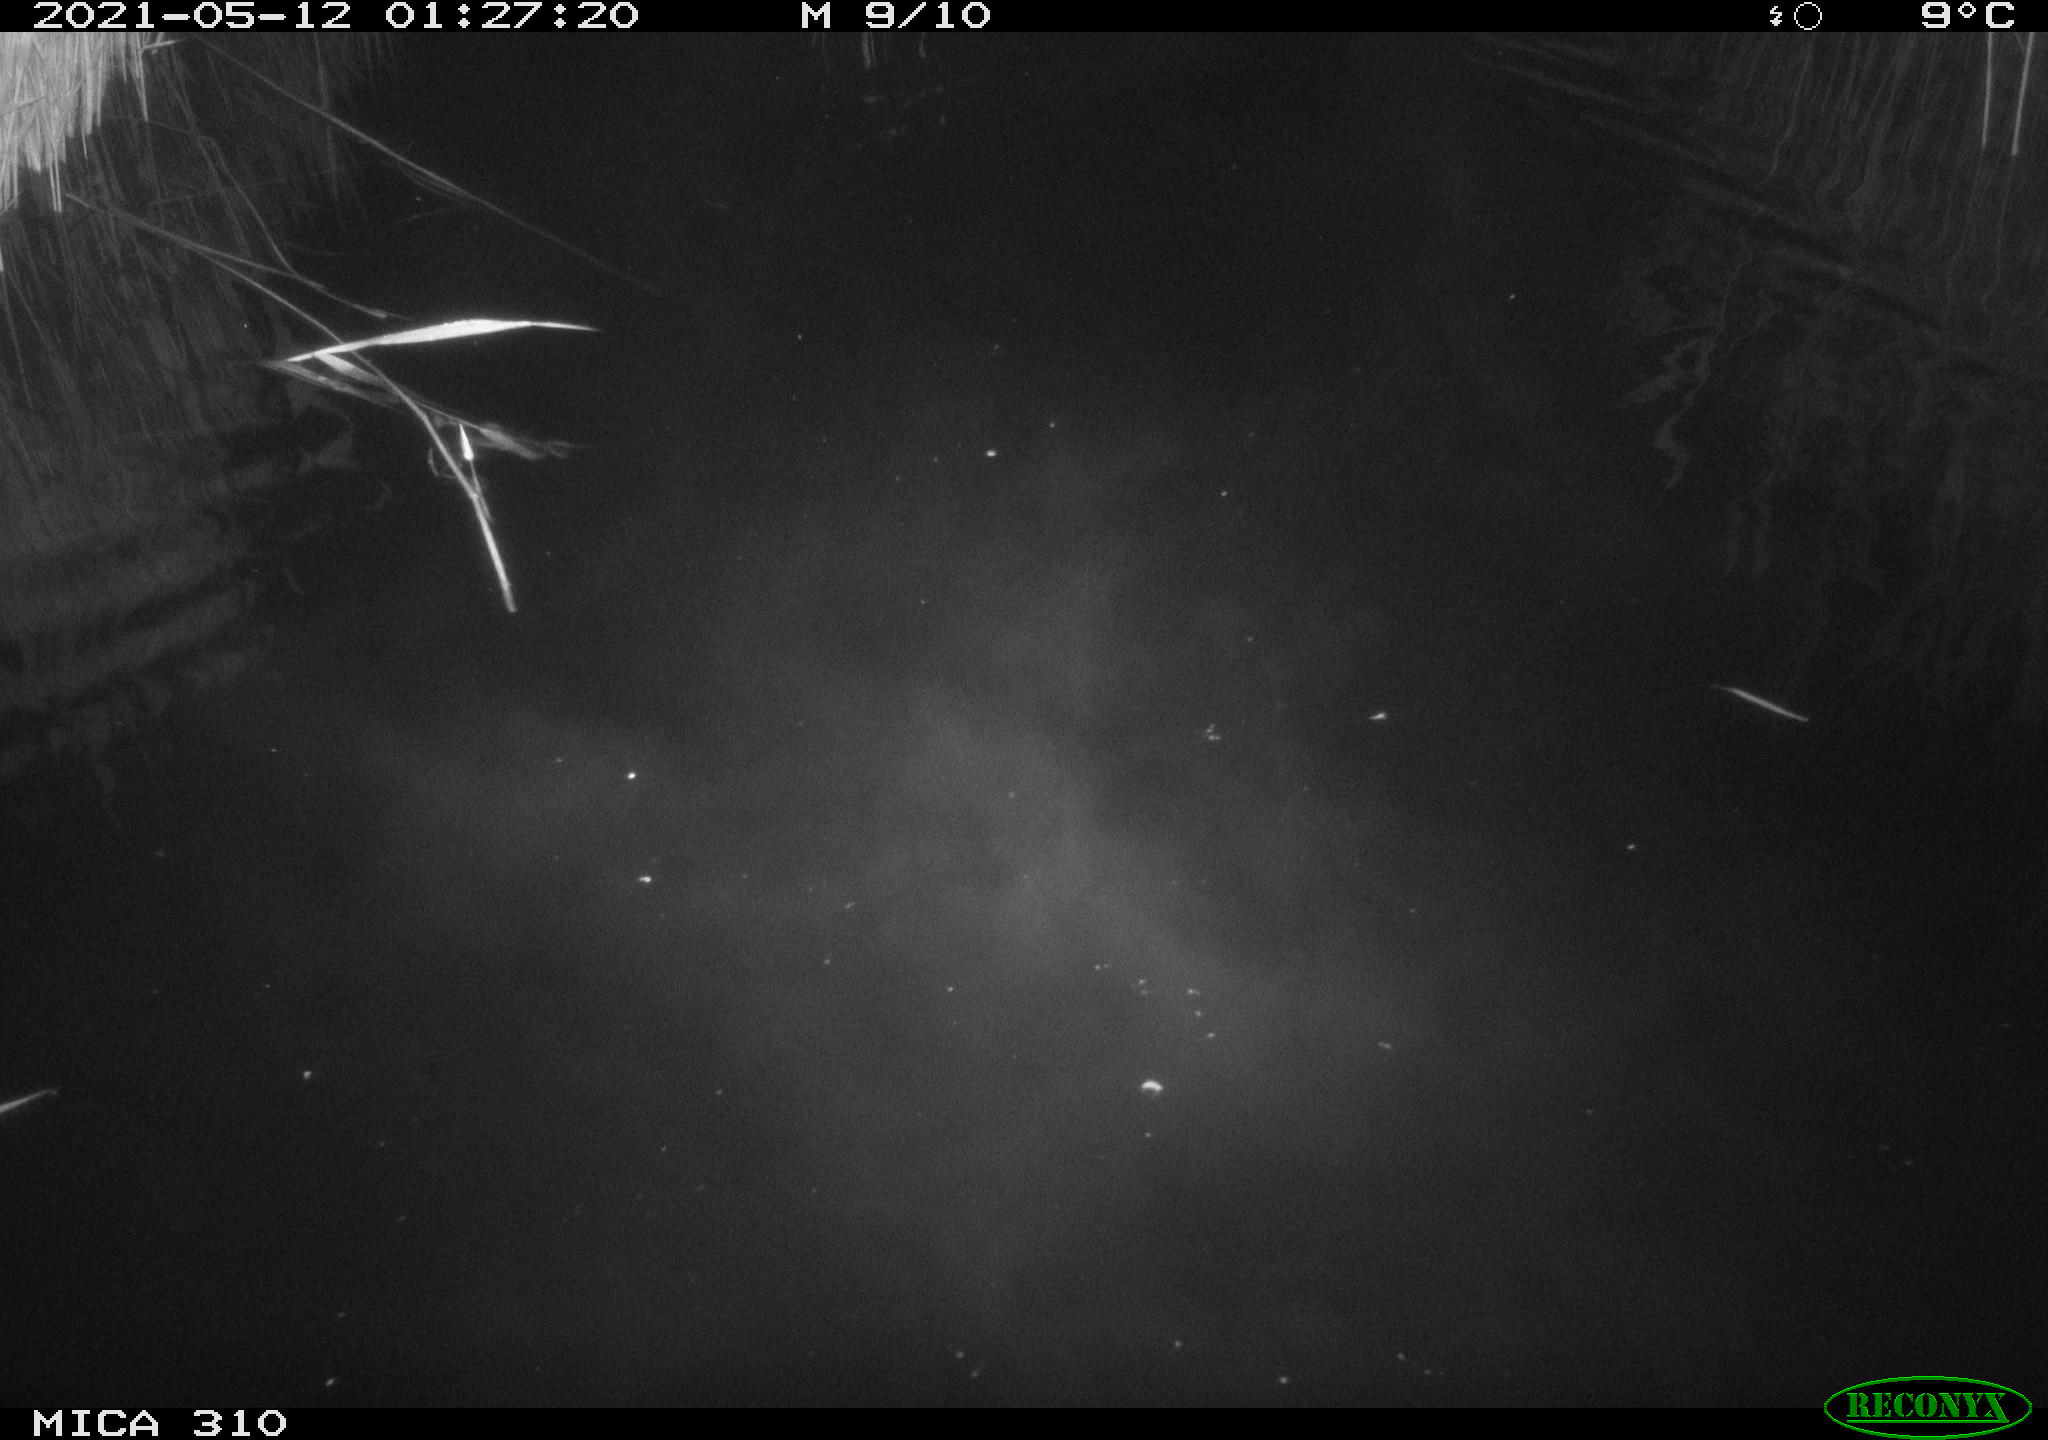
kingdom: Animalia
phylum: Chordata
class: Aves
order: Anseriformes
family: Anatidae
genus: Anas
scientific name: Anas platyrhynchos
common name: Mallard
